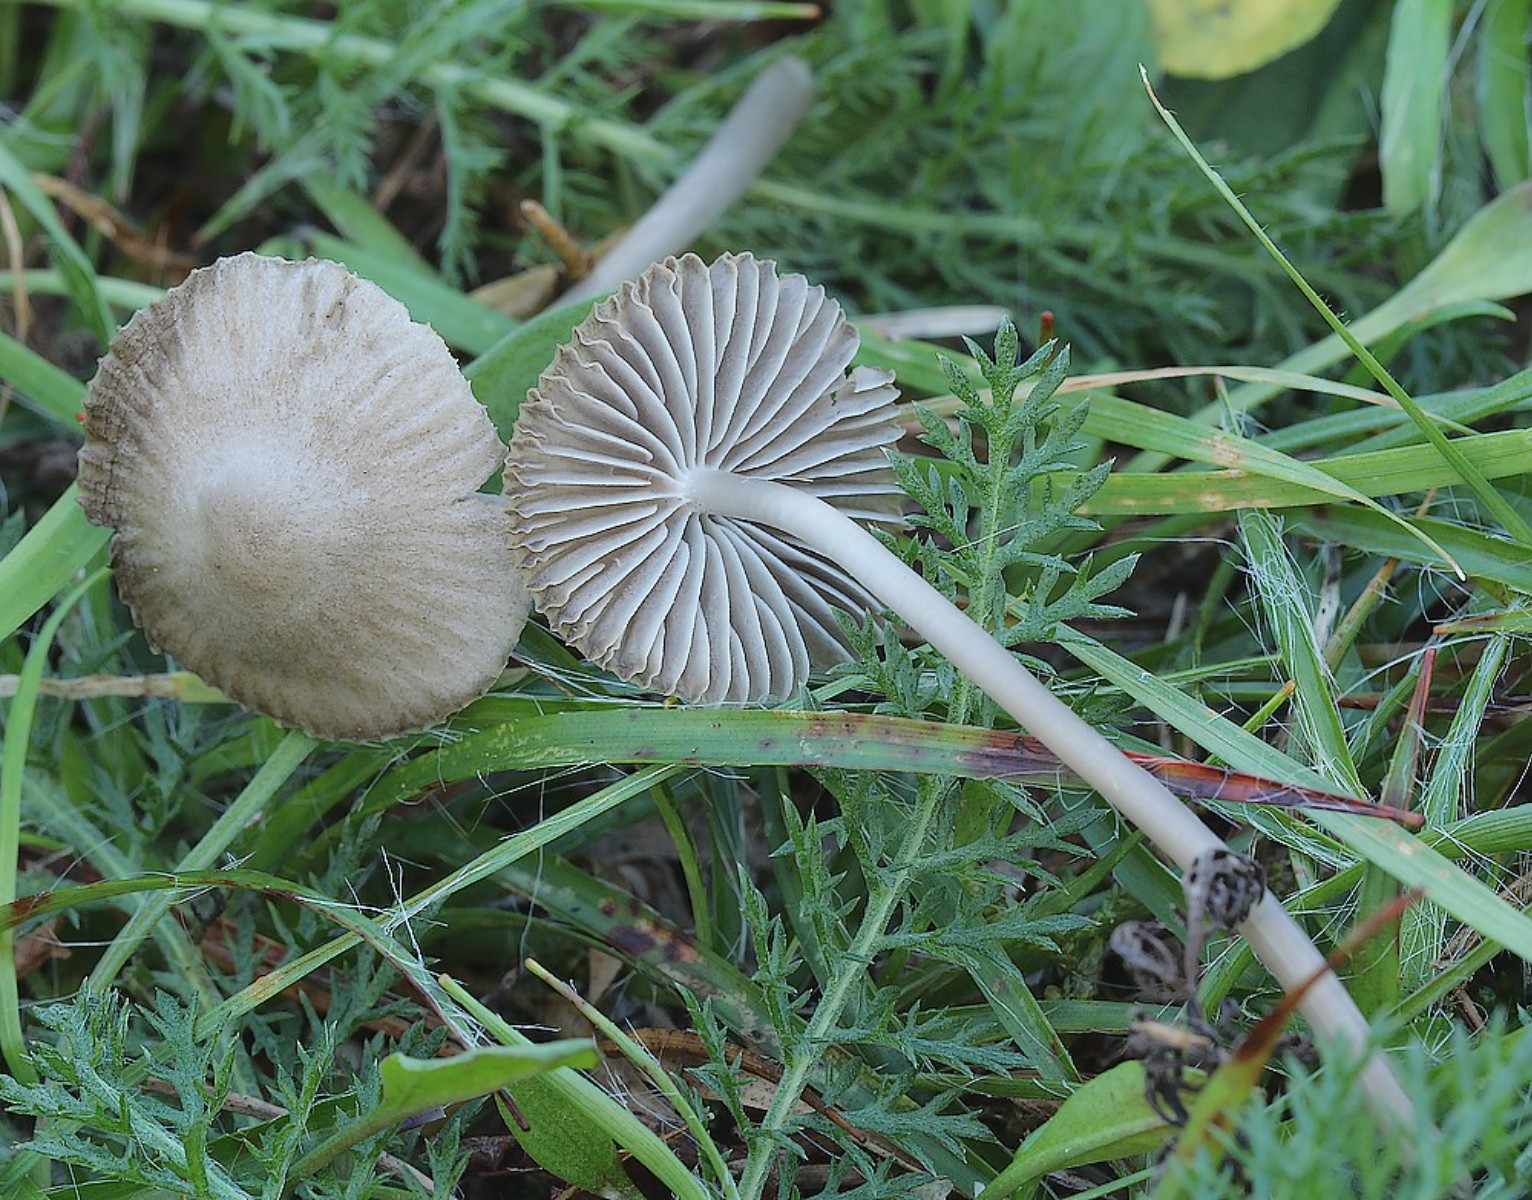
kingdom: Fungi
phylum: Basidiomycota
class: Agaricomycetes
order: Agaricales
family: Mycenaceae
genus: Mycena
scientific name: Mycena aetites
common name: plæne-huesvamp
